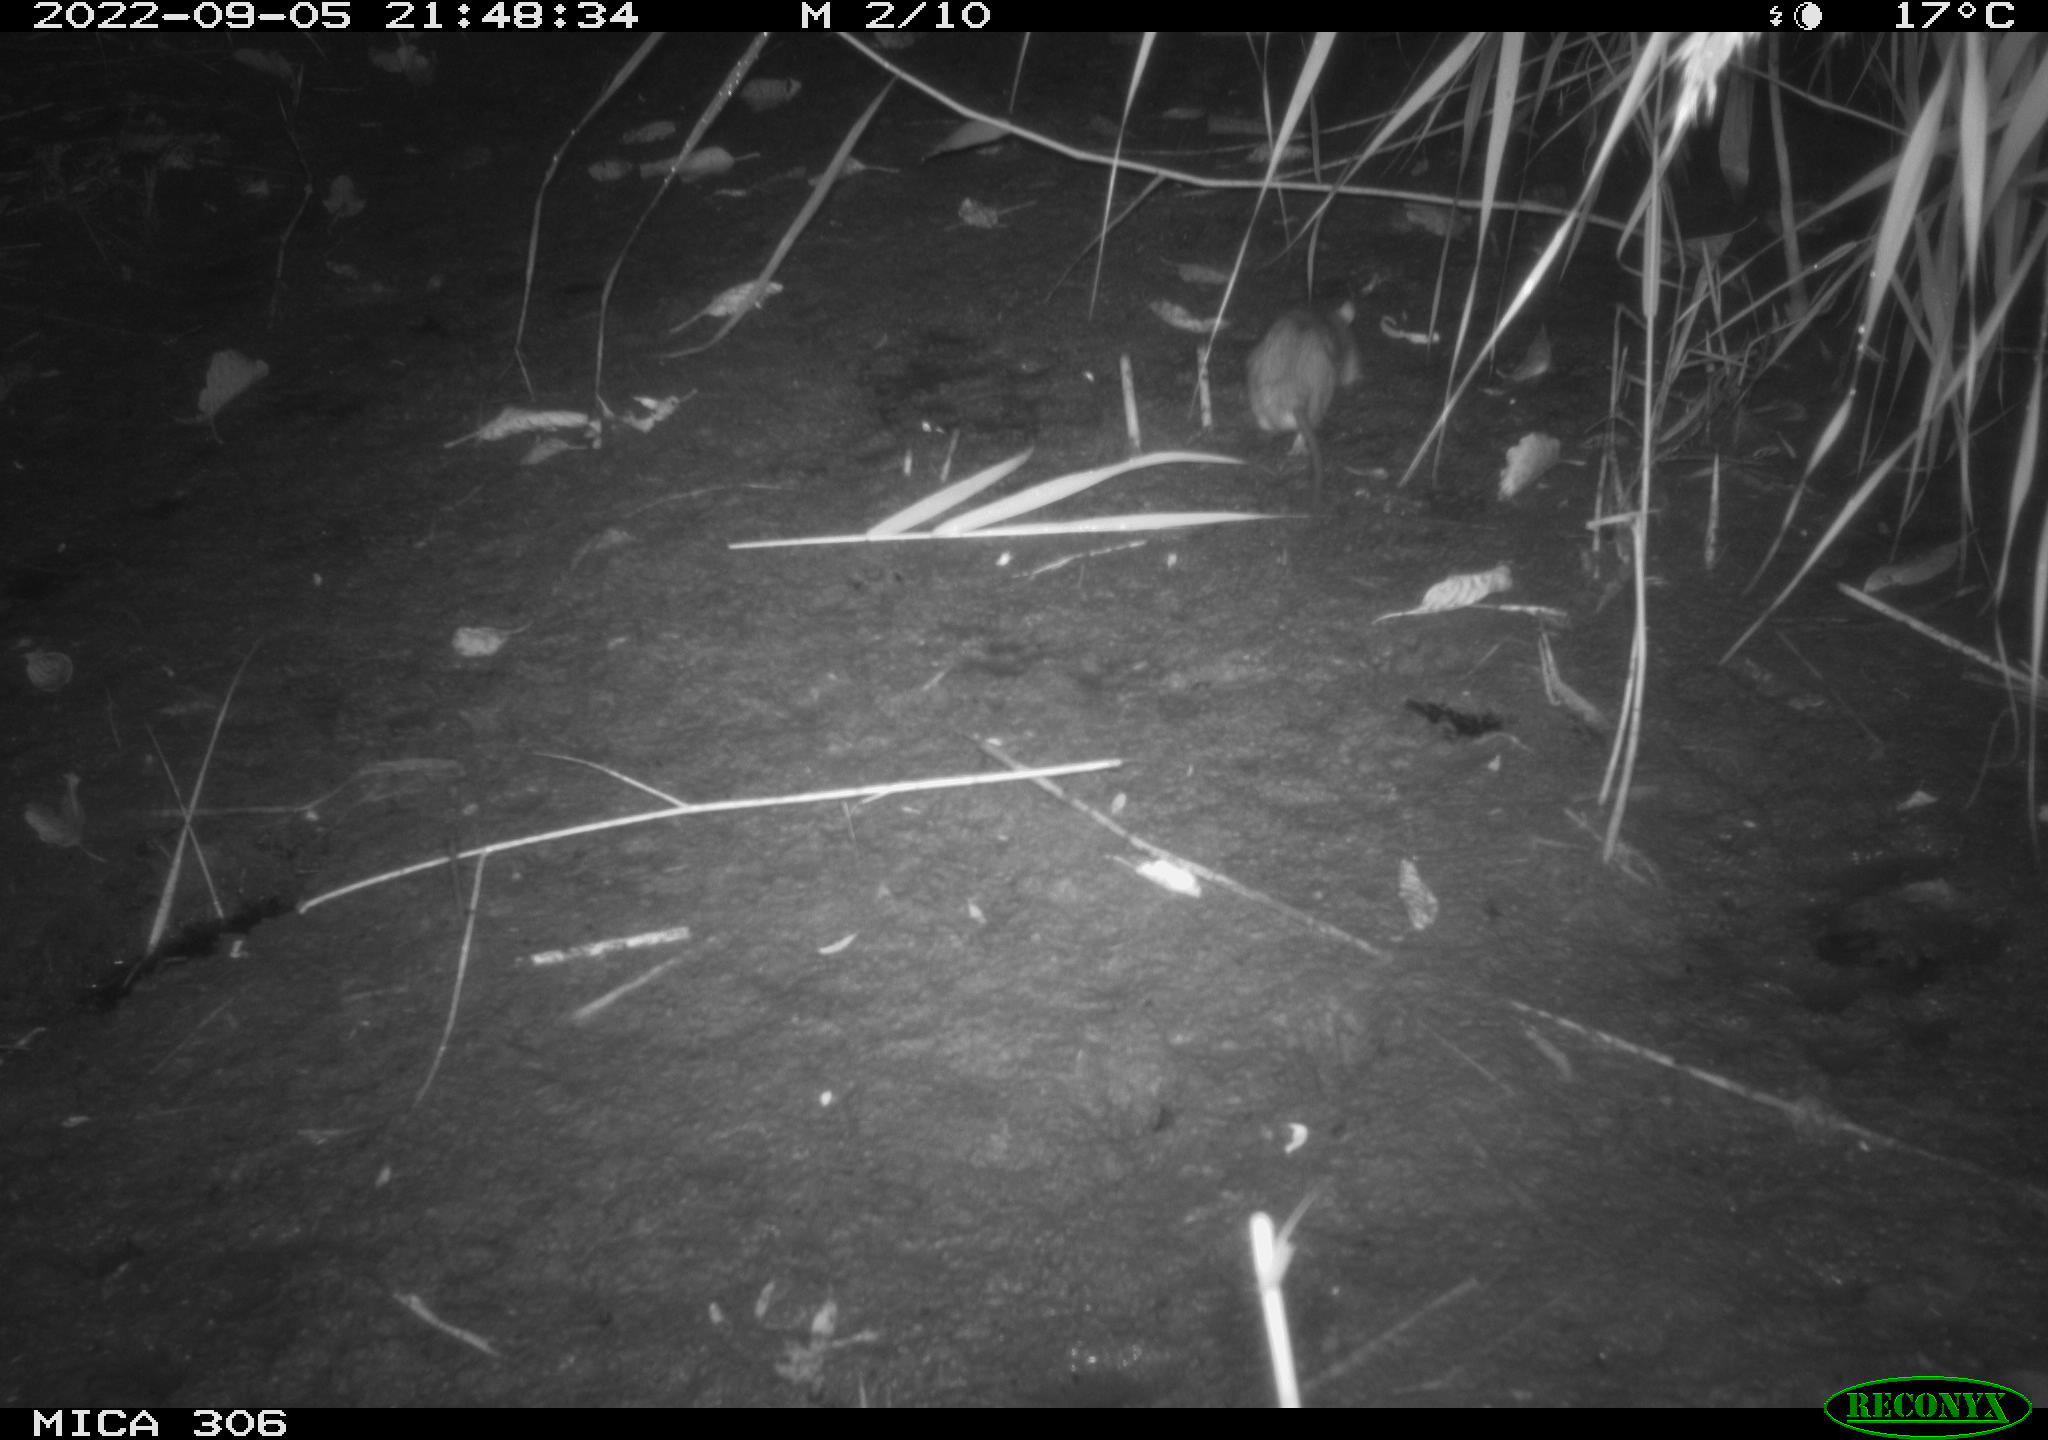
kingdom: Animalia
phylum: Chordata
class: Mammalia
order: Rodentia
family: Muridae
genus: Rattus
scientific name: Rattus norvegicus
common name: Brown rat
